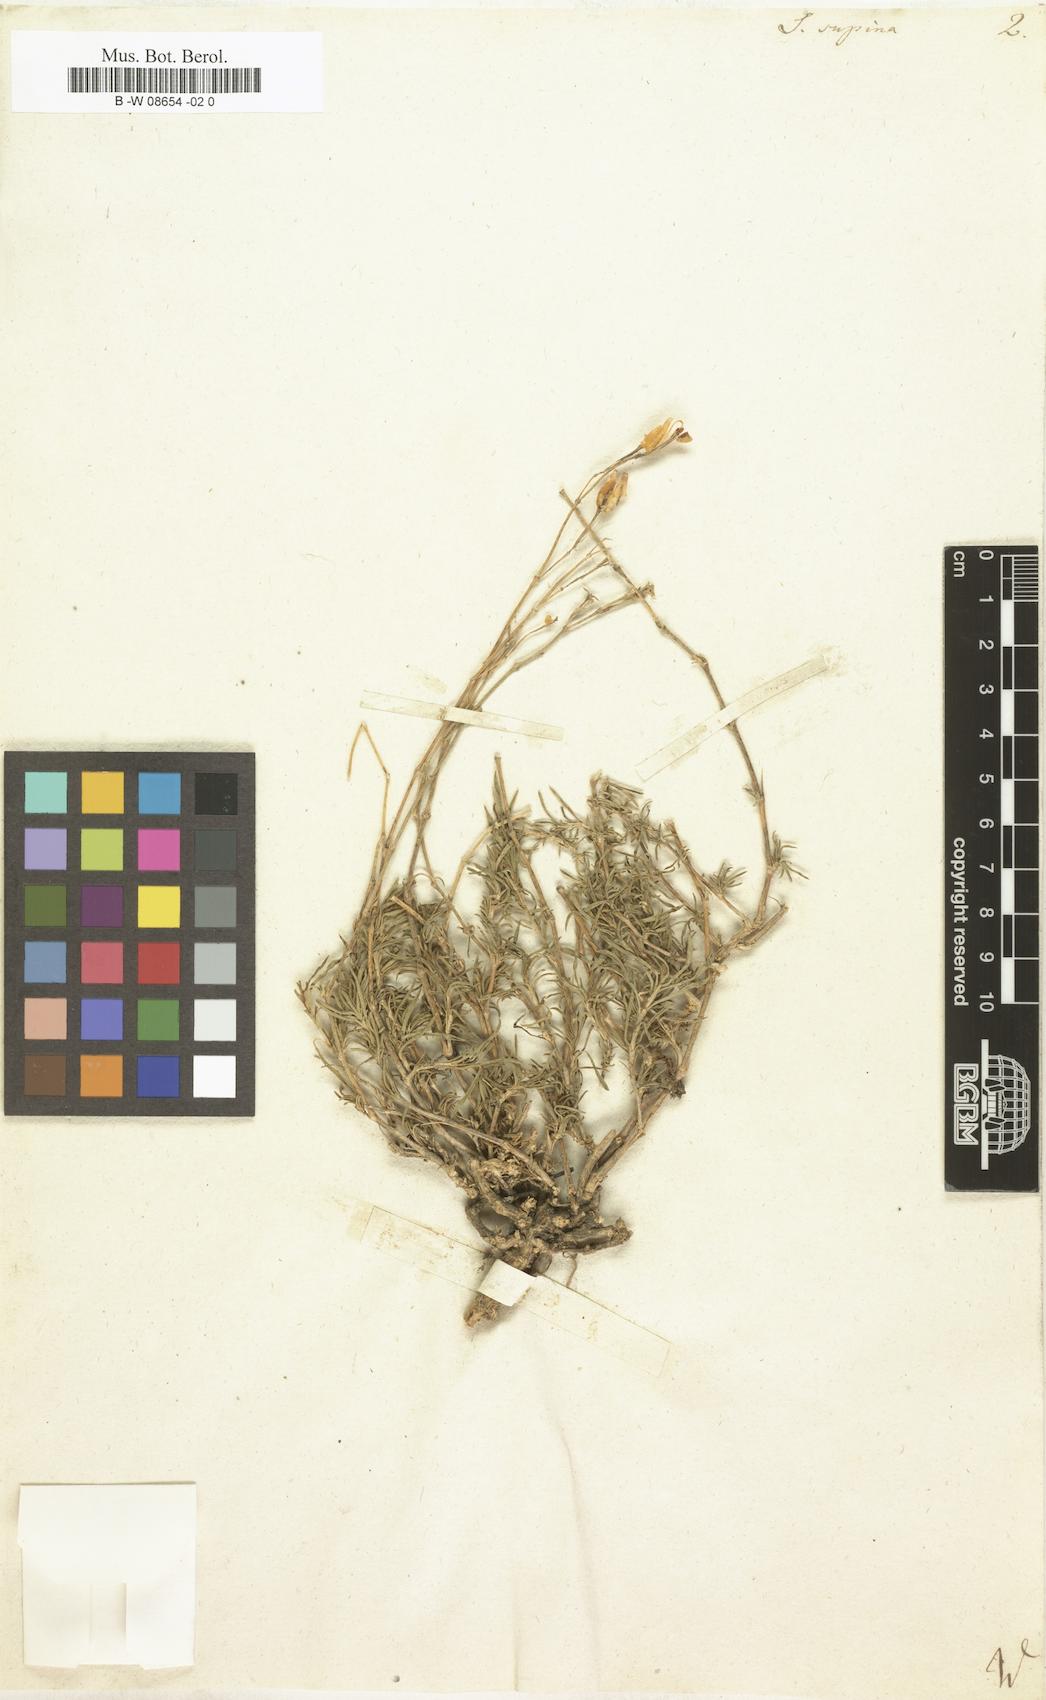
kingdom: Plantae
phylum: Tracheophyta
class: Magnoliopsida
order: Caryophyllales
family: Caryophyllaceae
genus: Silene
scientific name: Silene supina
